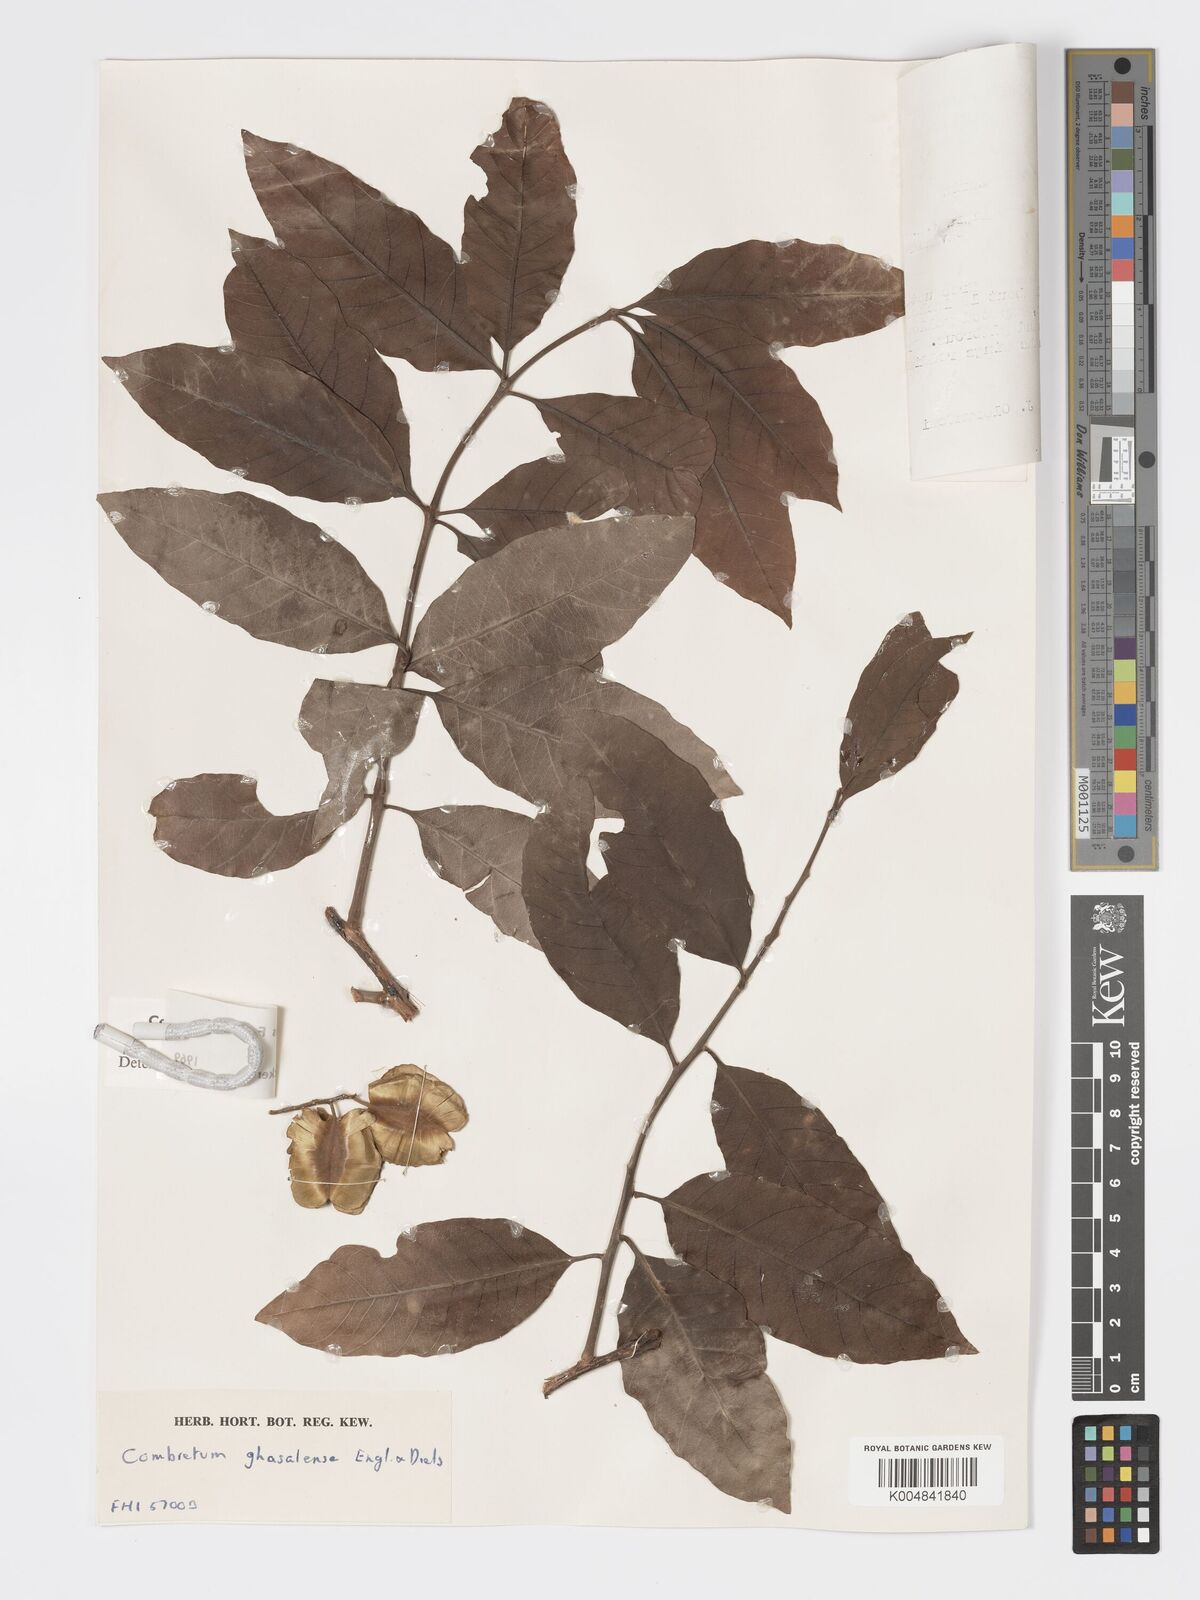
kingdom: Plantae
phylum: Tracheophyta
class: Magnoliopsida
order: Myrtales
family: Combretaceae
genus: Combretum
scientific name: Combretum adenogonium
